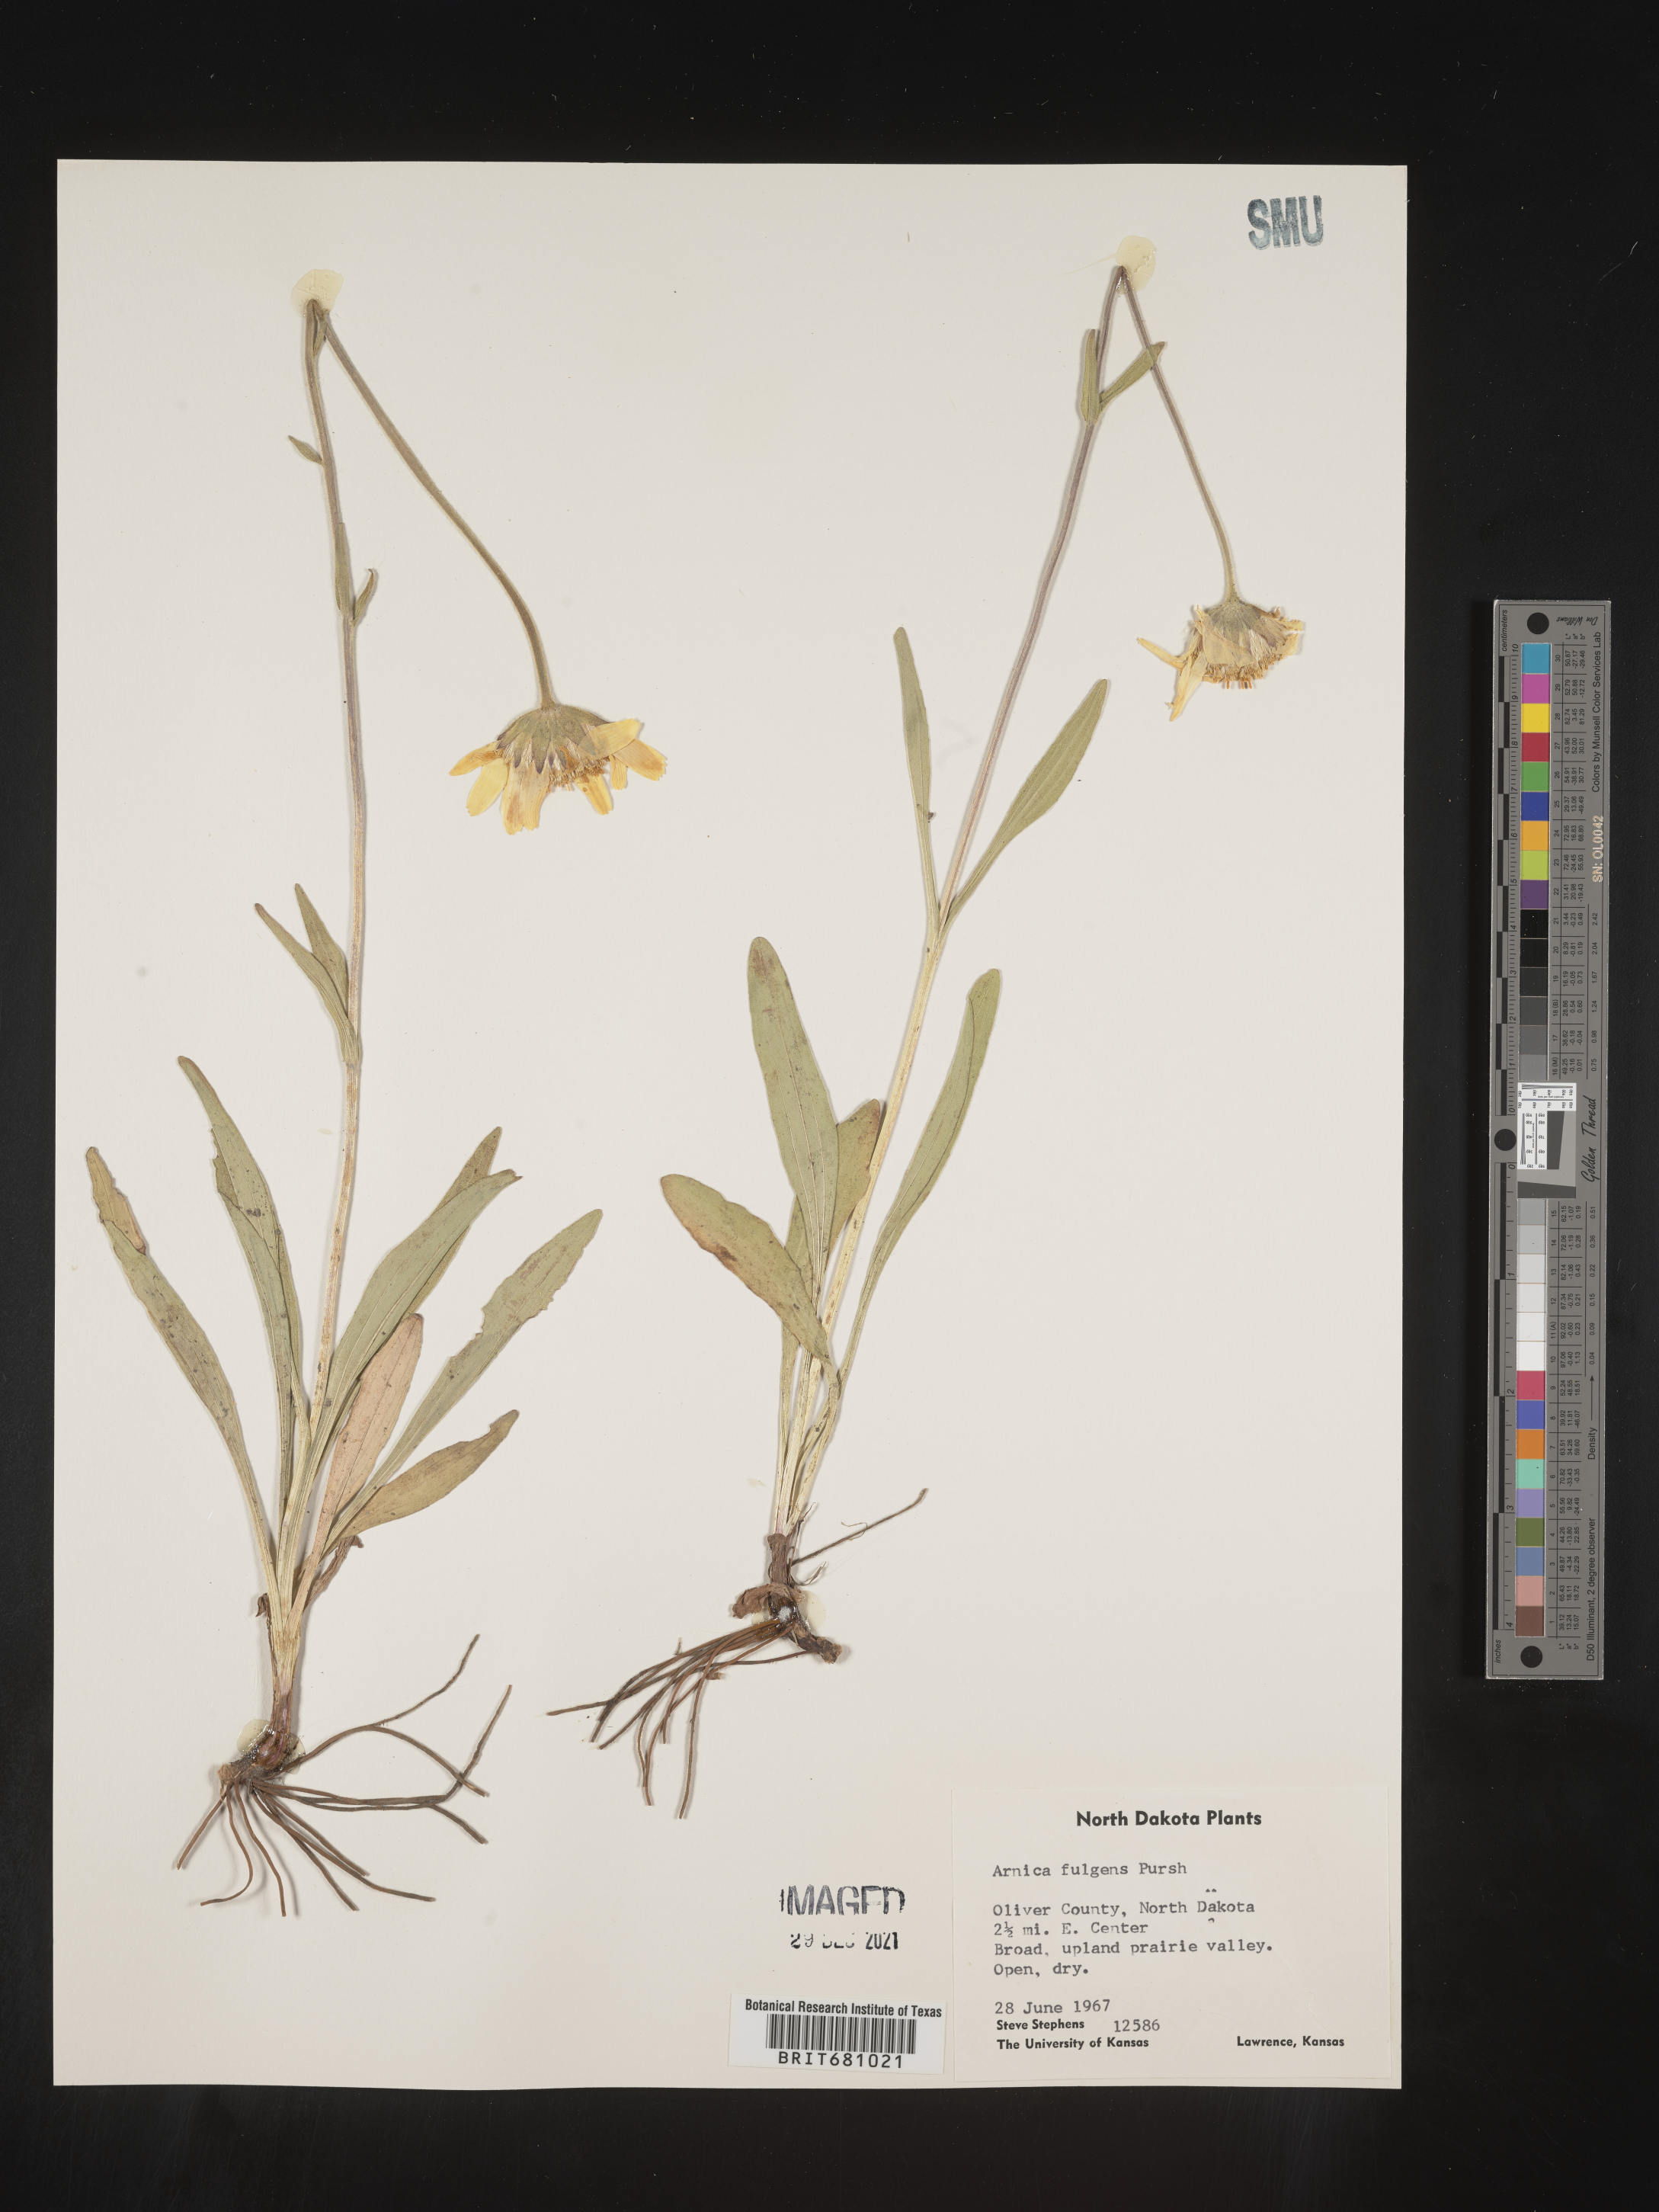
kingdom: Plantae
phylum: Tracheophyta
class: Magnoliopsida
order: Asterales
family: Asteraceae
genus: Arnica
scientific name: Arnica fulgens
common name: Foothill arnica
